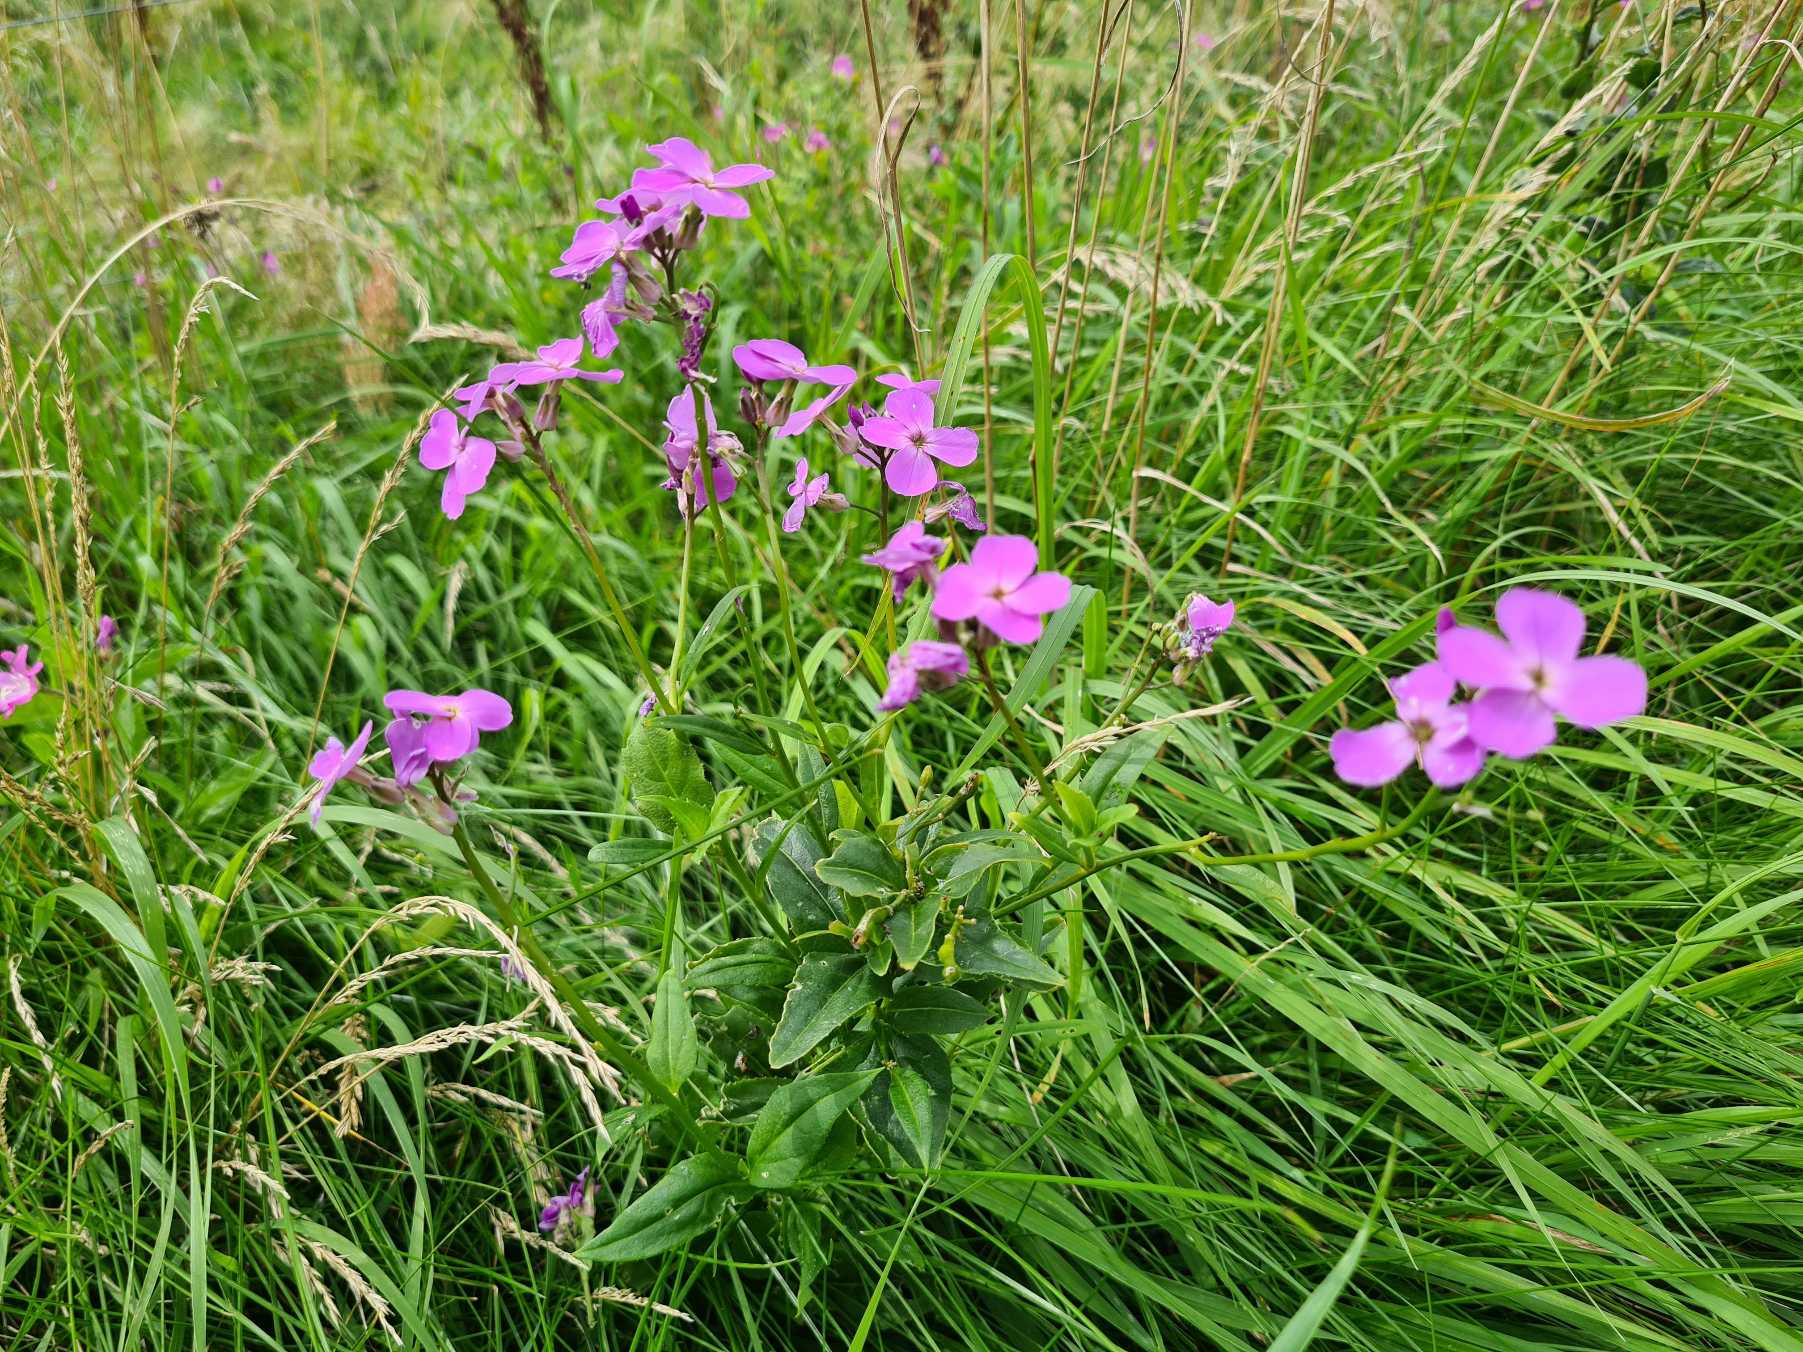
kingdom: Plantae
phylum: Tracheophyta
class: Magnoliopsida
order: Brassicales
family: Brassicaceae
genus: Hesperis
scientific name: Hesperis matronalis
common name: Aftenstjerne
